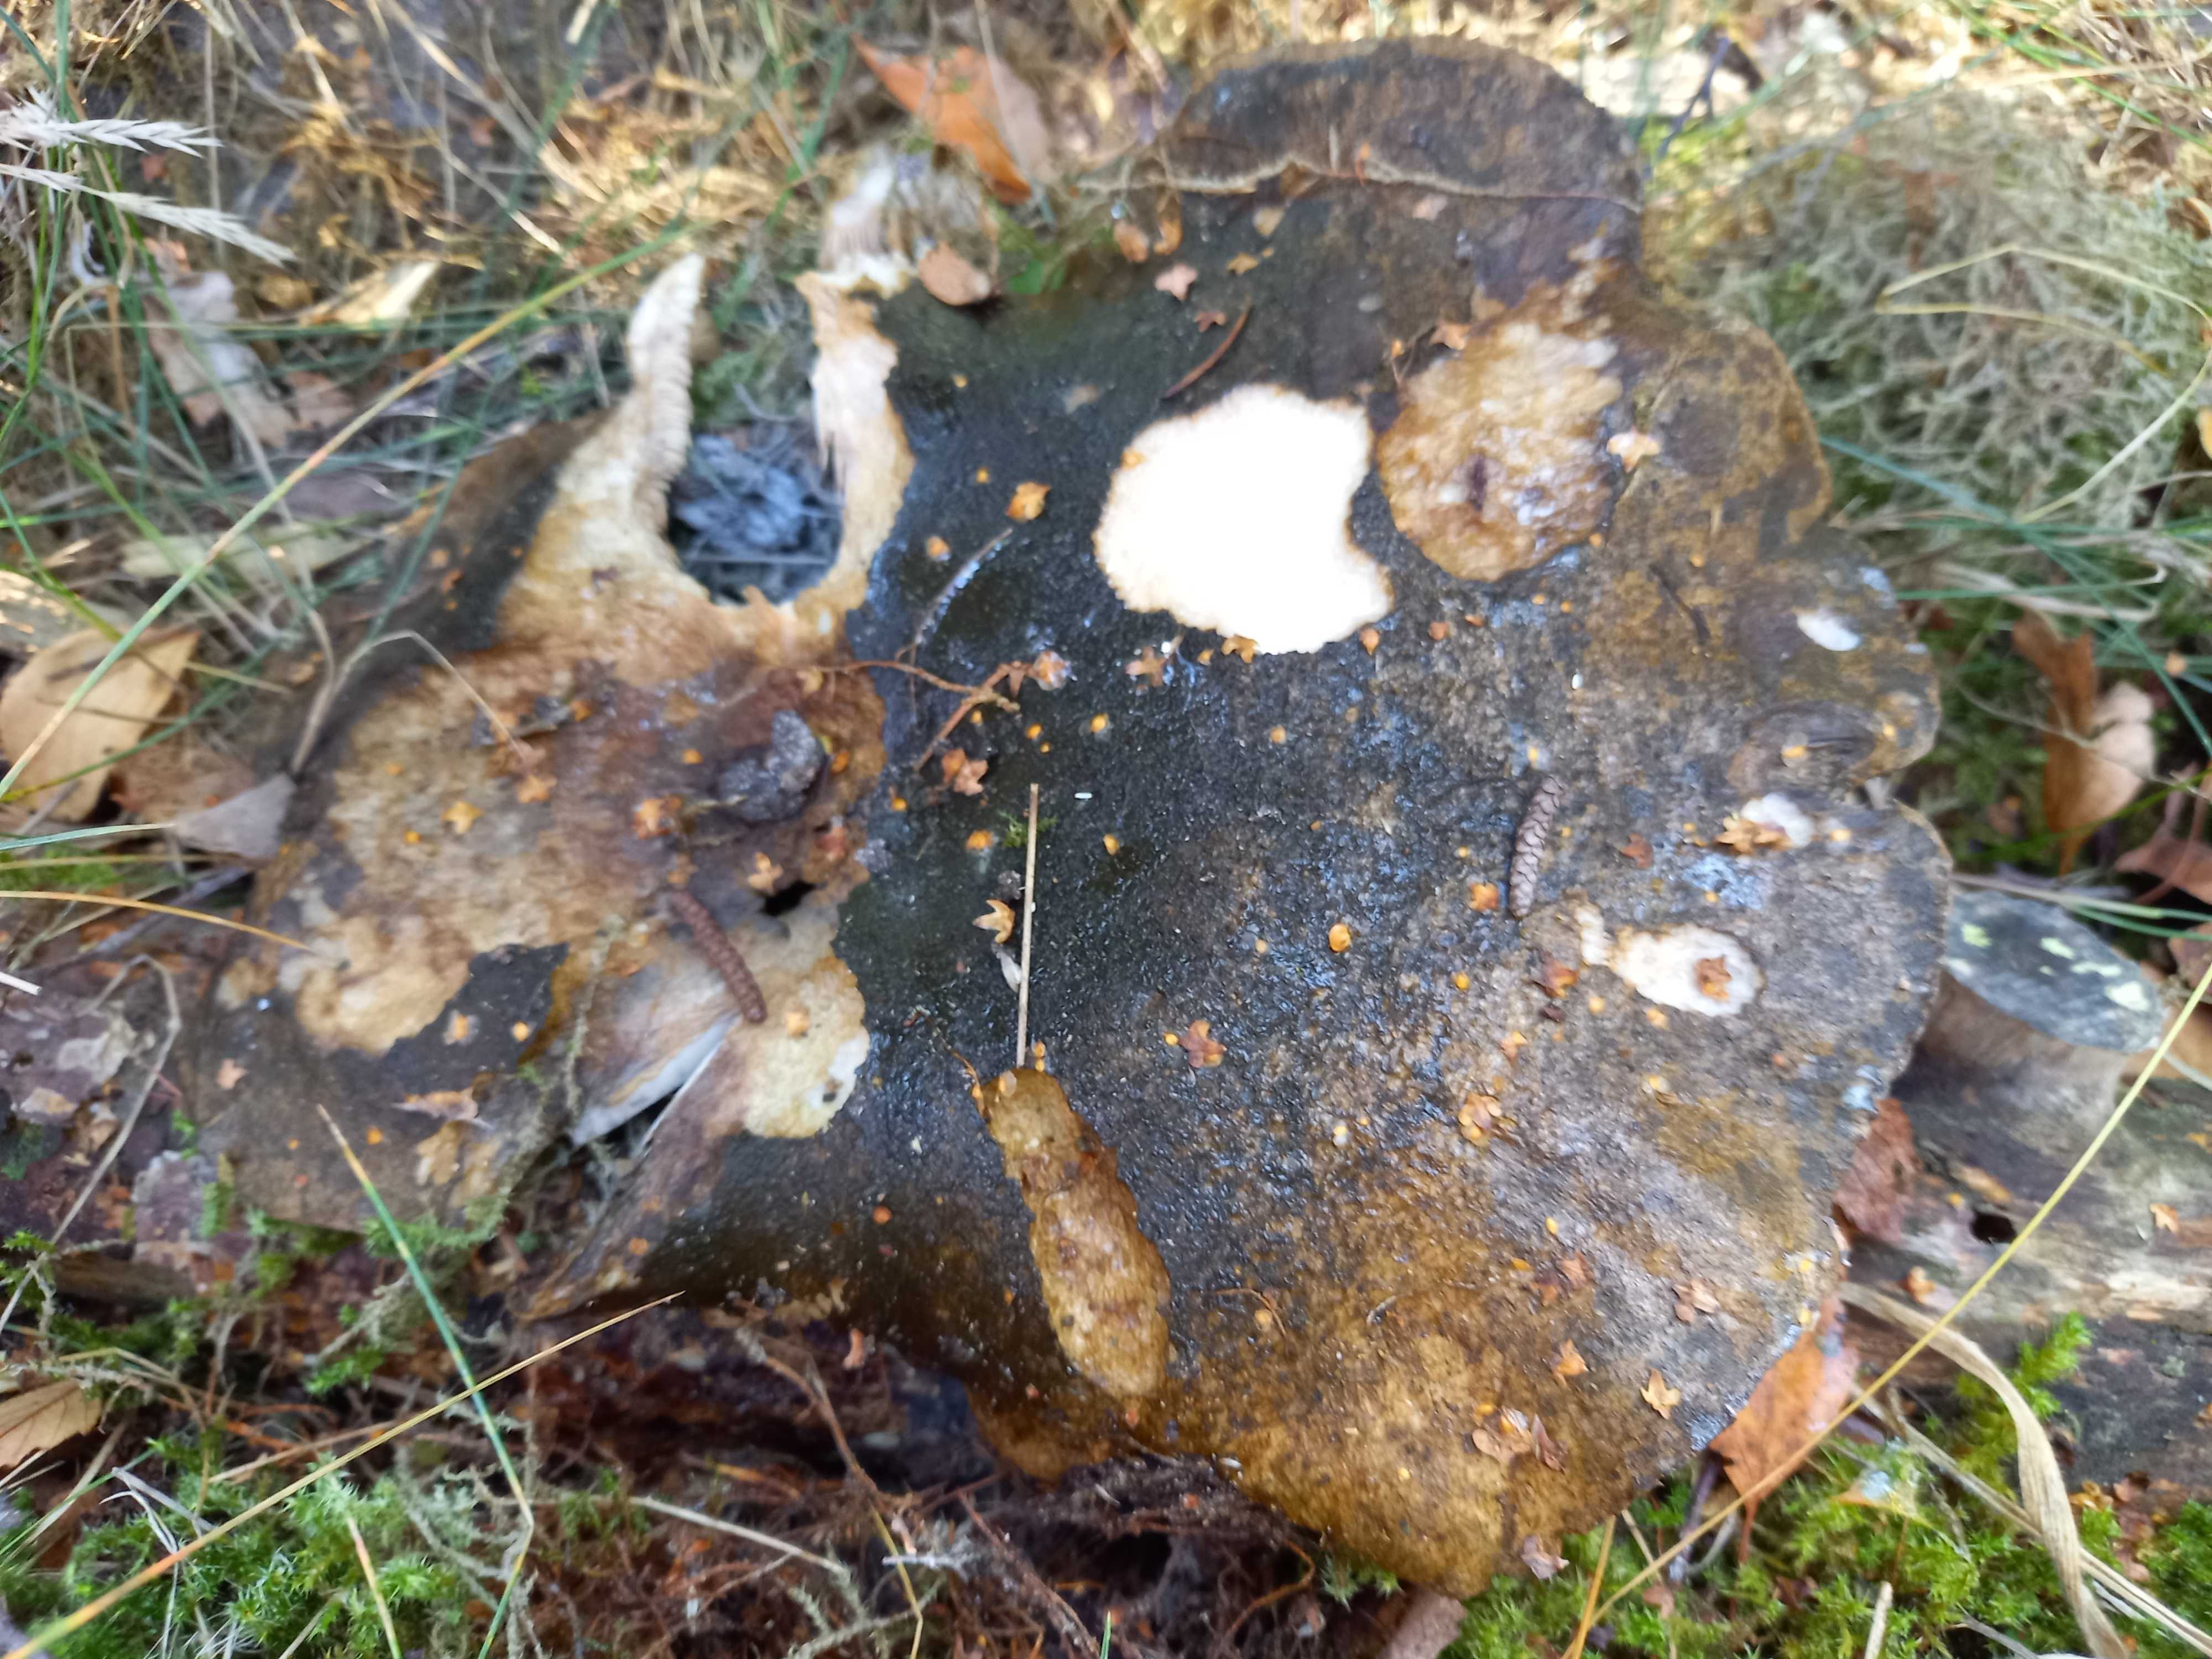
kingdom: Fungi
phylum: Basidiomycota
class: Agaricomycetes
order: Russulales
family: Russulaceae
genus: Lactarius
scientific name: Lactarius necator
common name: manddraber-mælkehat
